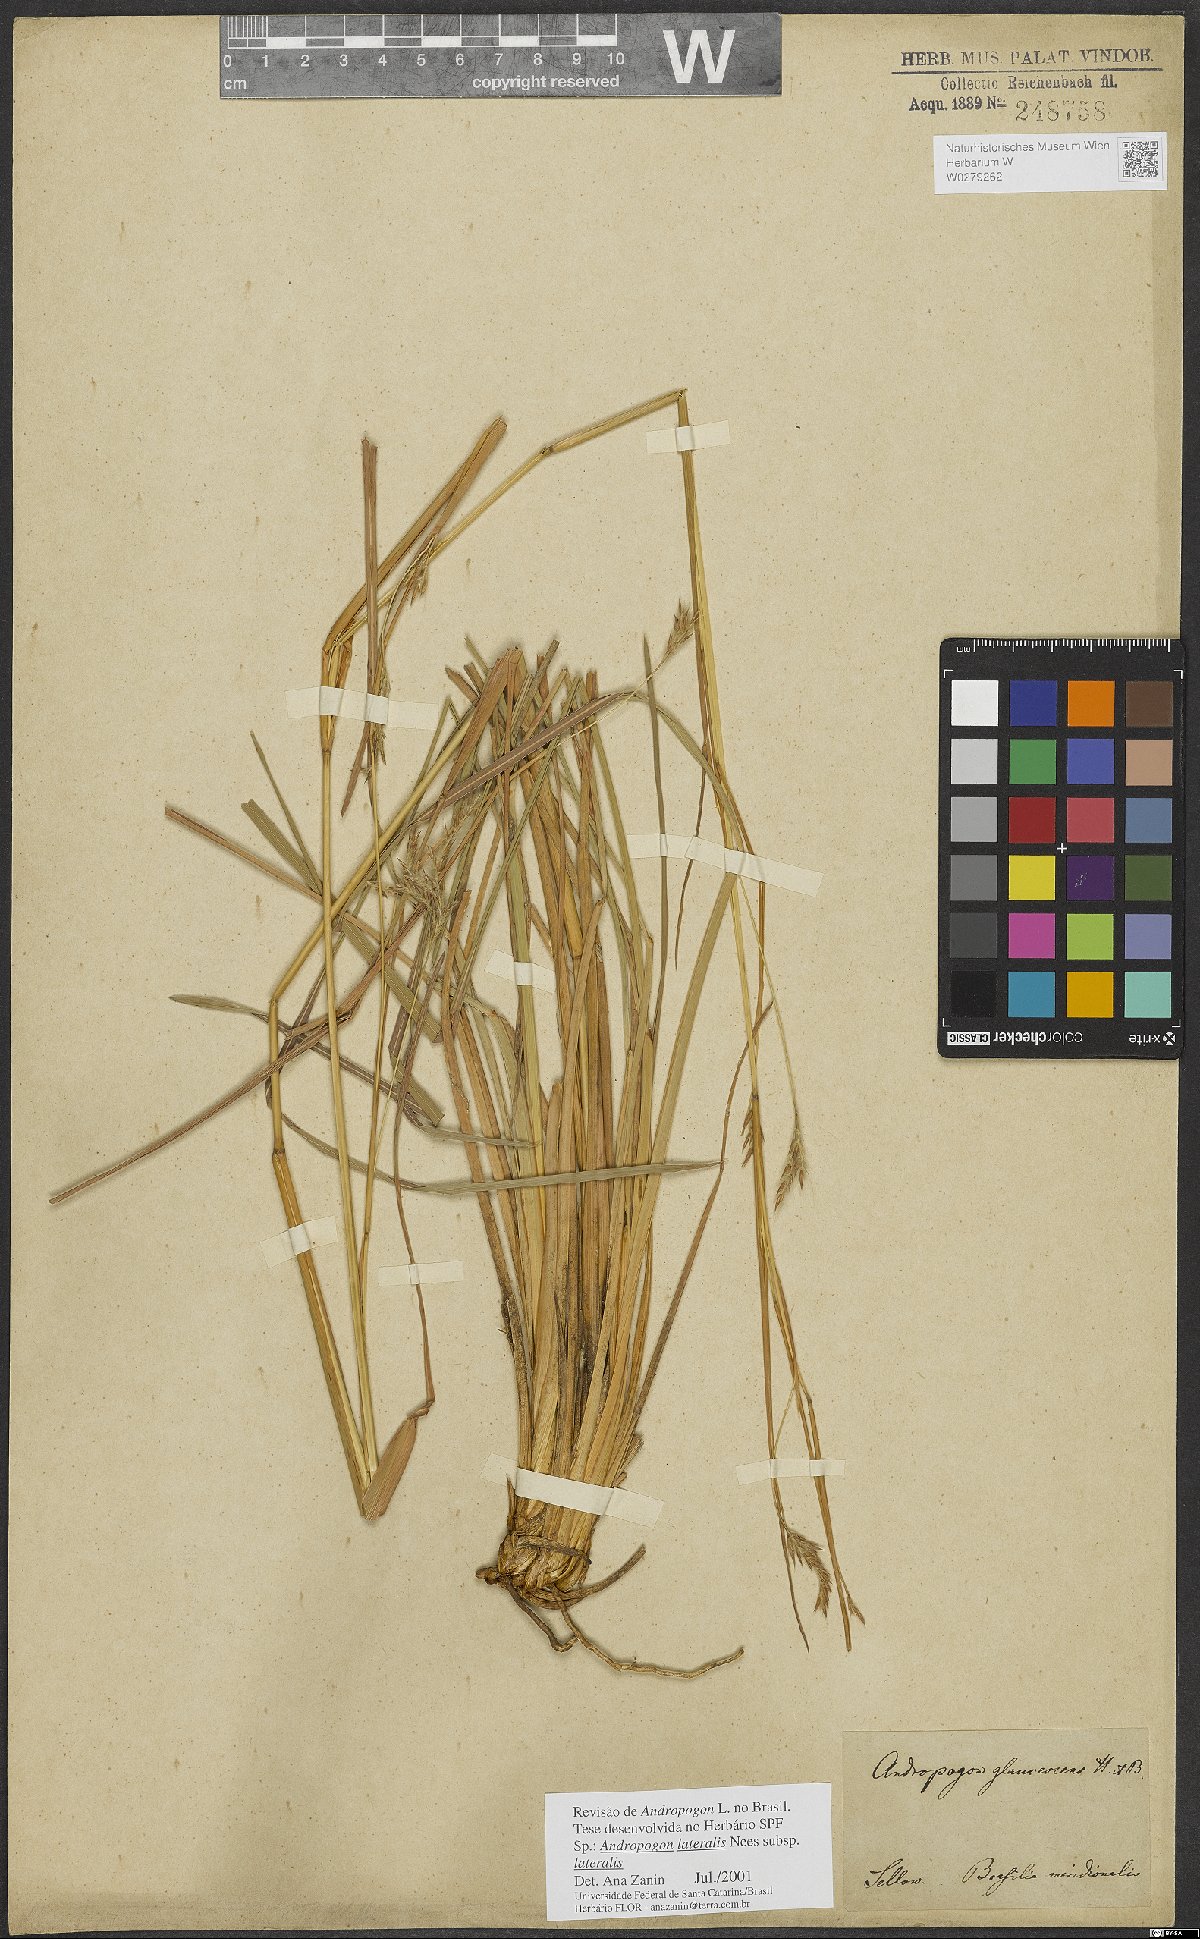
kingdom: Plantae
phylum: Tracheophyta
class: Liliopsida
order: Poales
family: Poaceae
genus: Andropogon
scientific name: Andropogon lateralis
